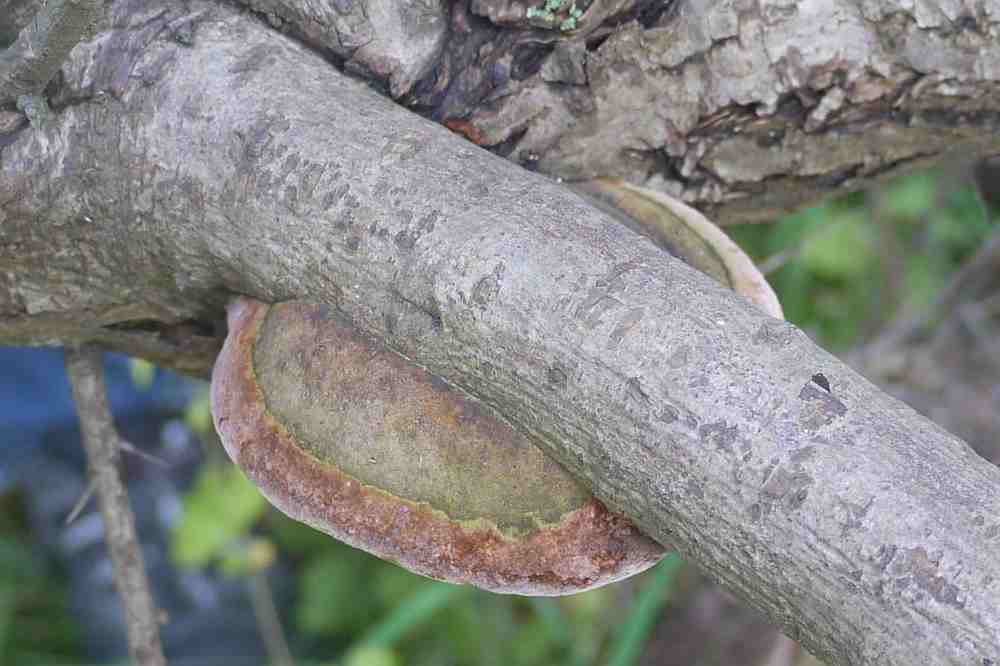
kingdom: Fungi
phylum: Basidiomycota
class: Agaricomycetes
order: Hymenochaetales
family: Hymenochaetaceae
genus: Fomitiporia
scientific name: Fomitiporia hippophaeicola
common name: havtorn-ildporesvamp
